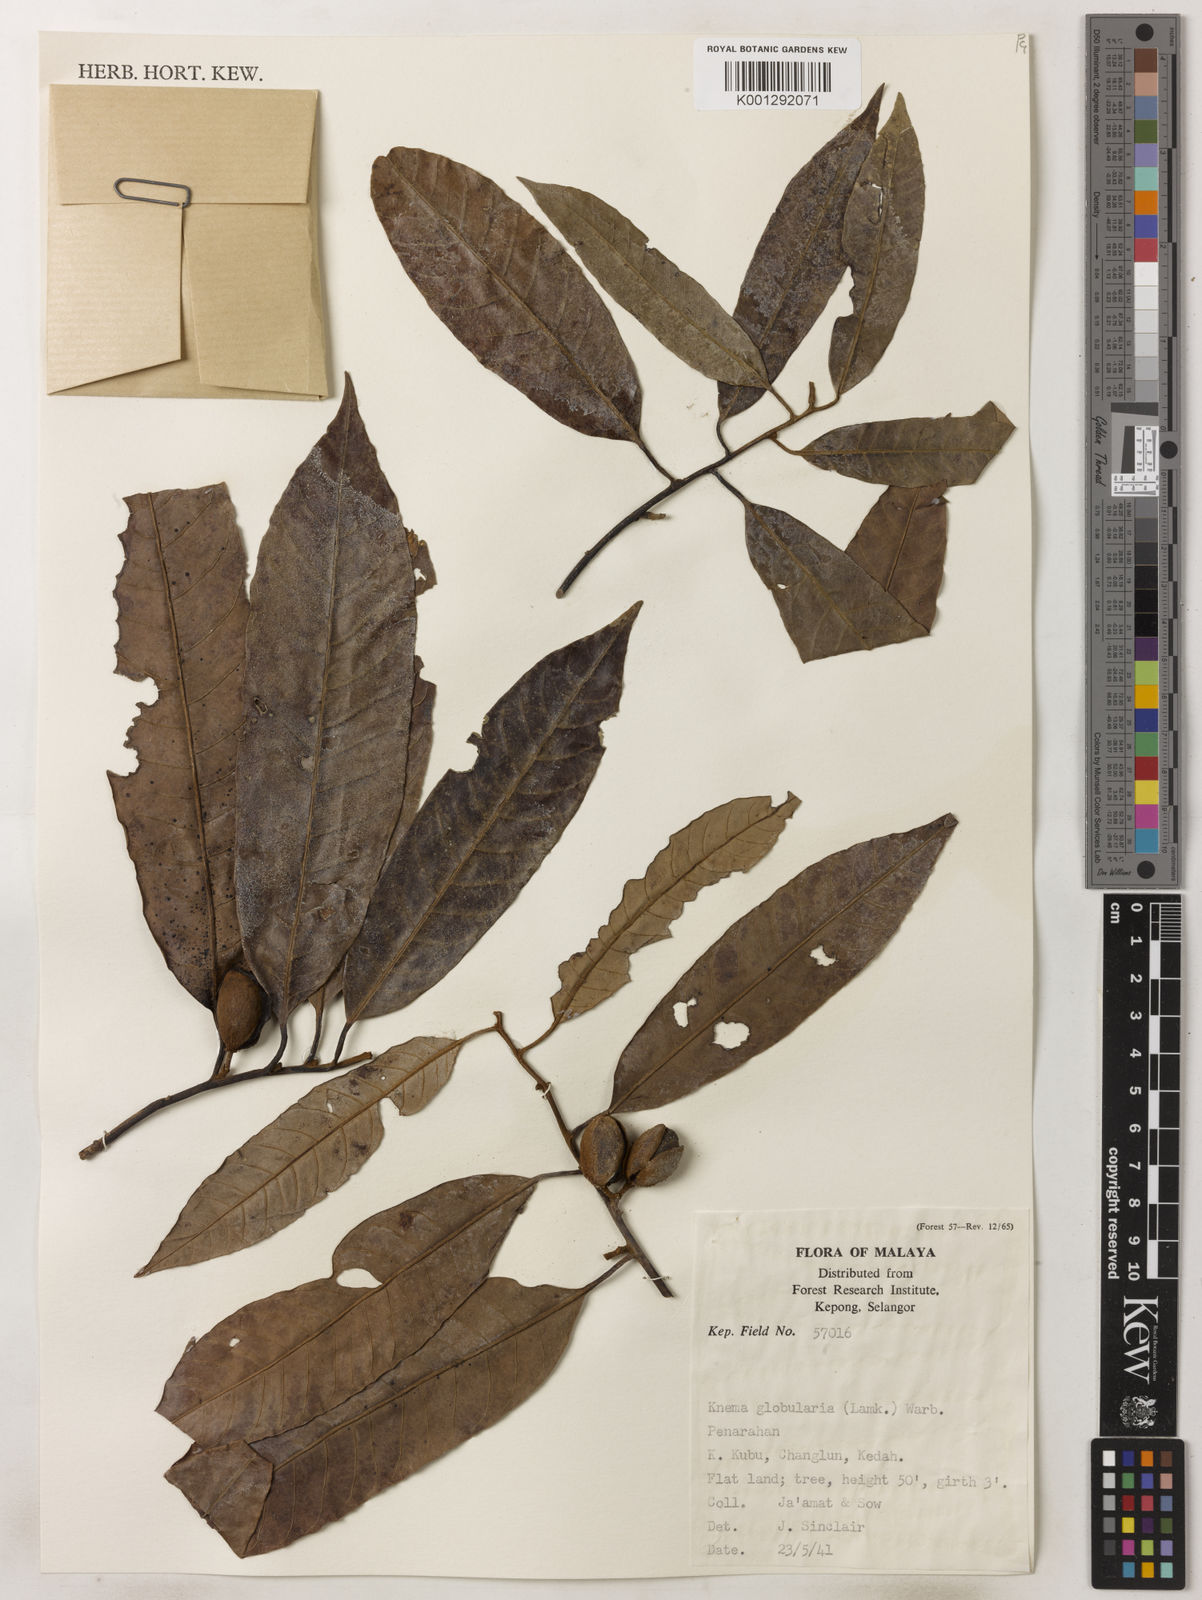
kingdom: Plantae
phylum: Tracheophyta
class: Magnoliopsida
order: Magnoliales
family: Myristicaceae
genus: Knema
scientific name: Knema globularia
